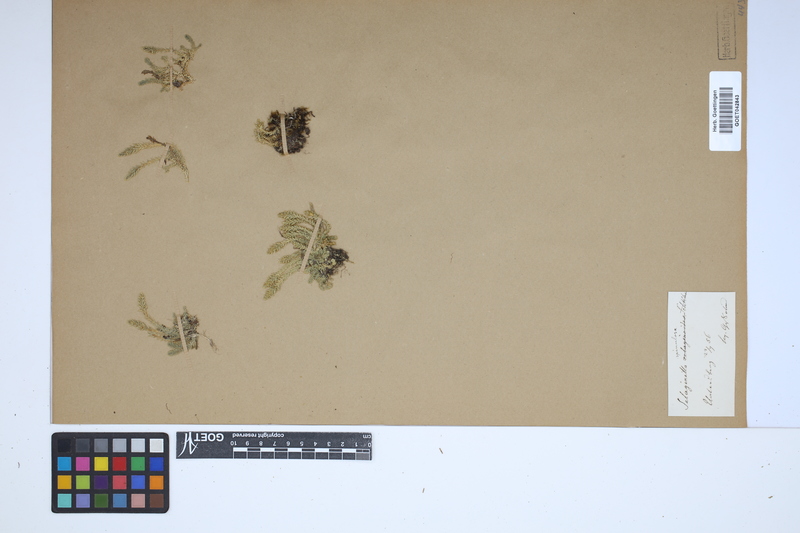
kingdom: Plantae
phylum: Tracheophyta
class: Lycopodiopsida
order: Selaginellales
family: Selaginellaceae
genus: Selaginella
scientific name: Selaginella selaginoides
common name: Prickly mountain-moss
